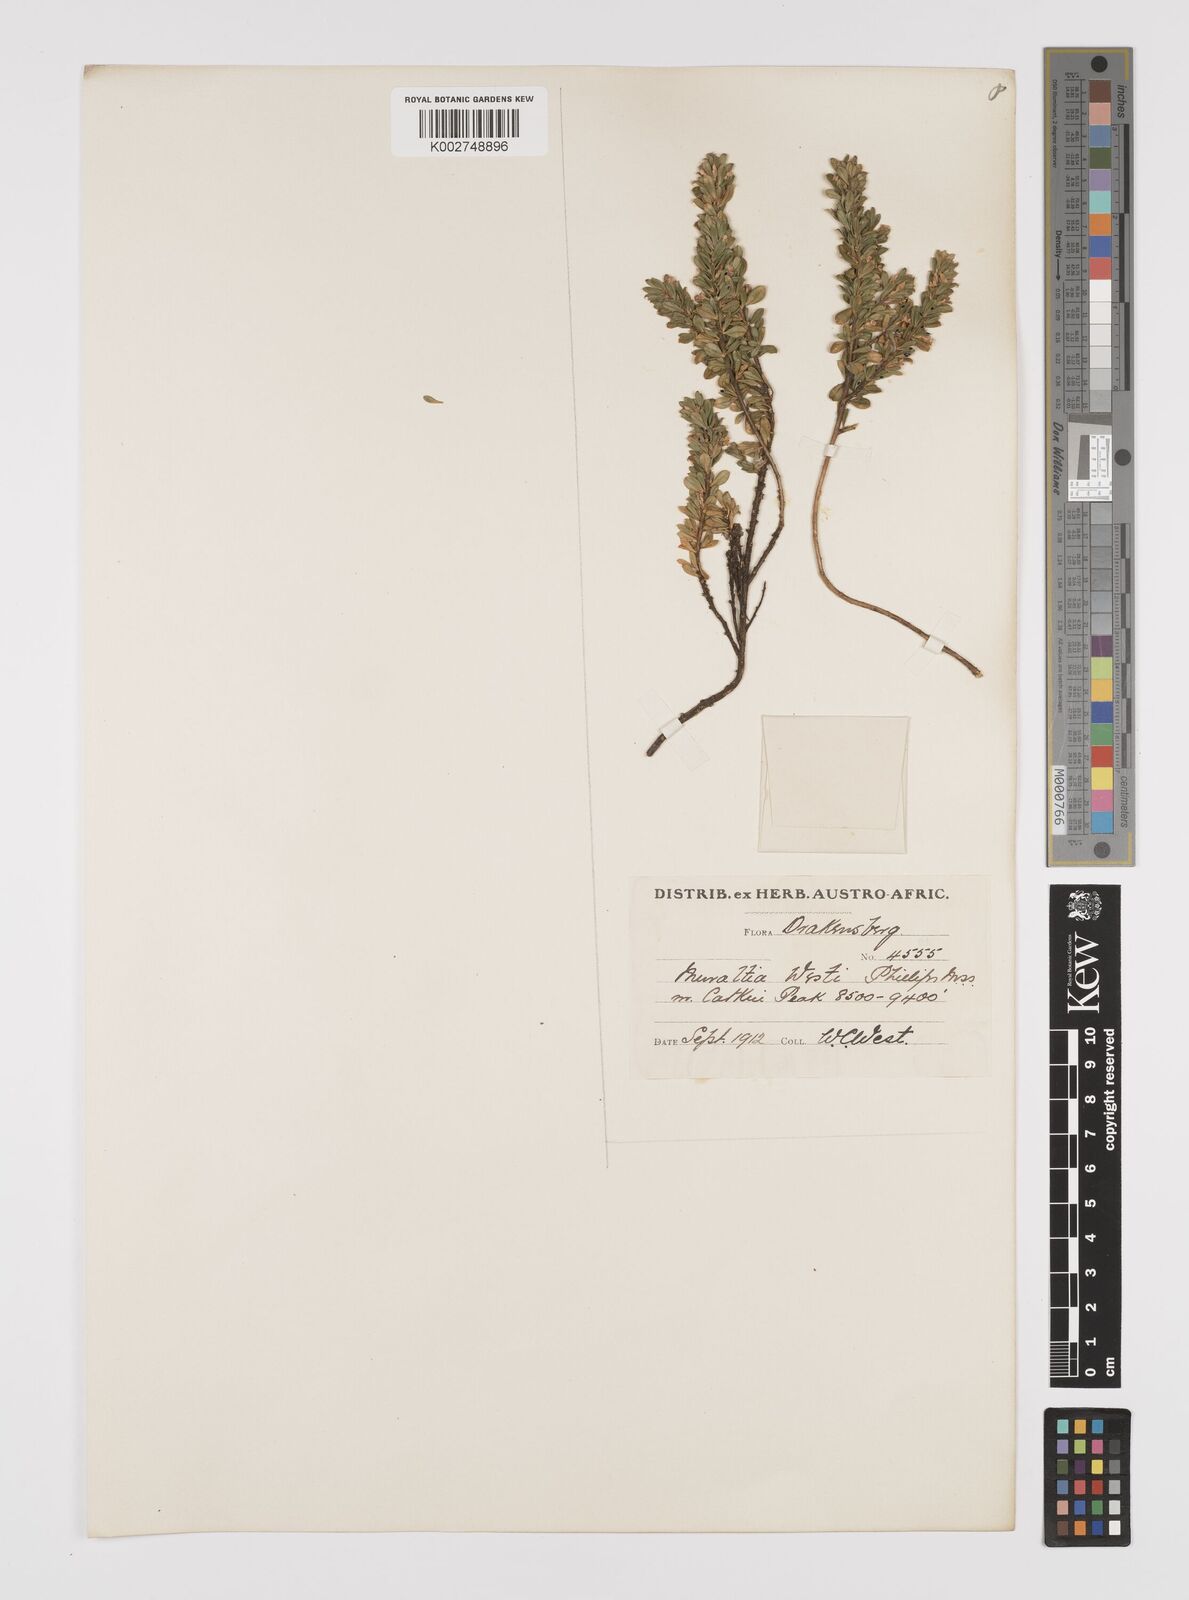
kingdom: Plantae
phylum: Tracheophyta
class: Magnoliopsida
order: Fabales
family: Polygalaceae
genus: Muraltia
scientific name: Muraltia saxicola
